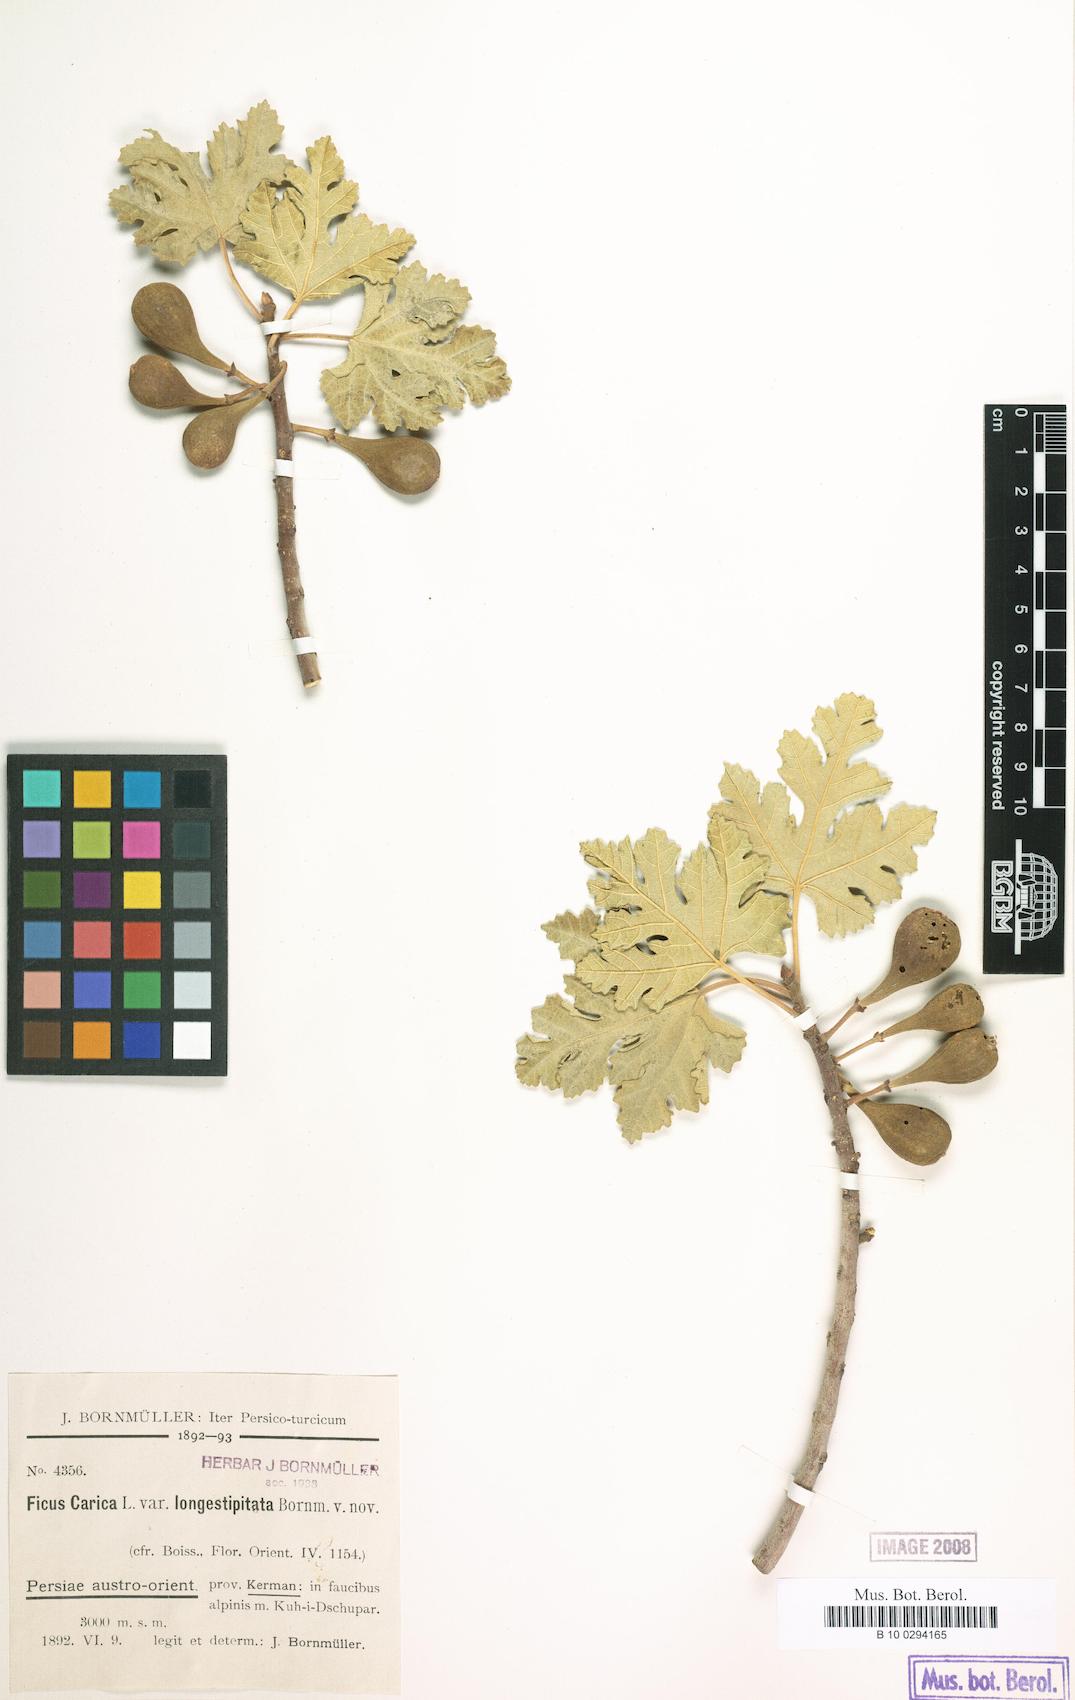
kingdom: Plantae
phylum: Tracheophyta
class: Magnoliopsida
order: Rosales
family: Moraceae
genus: Ficus
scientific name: Ficus carica
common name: Fig
